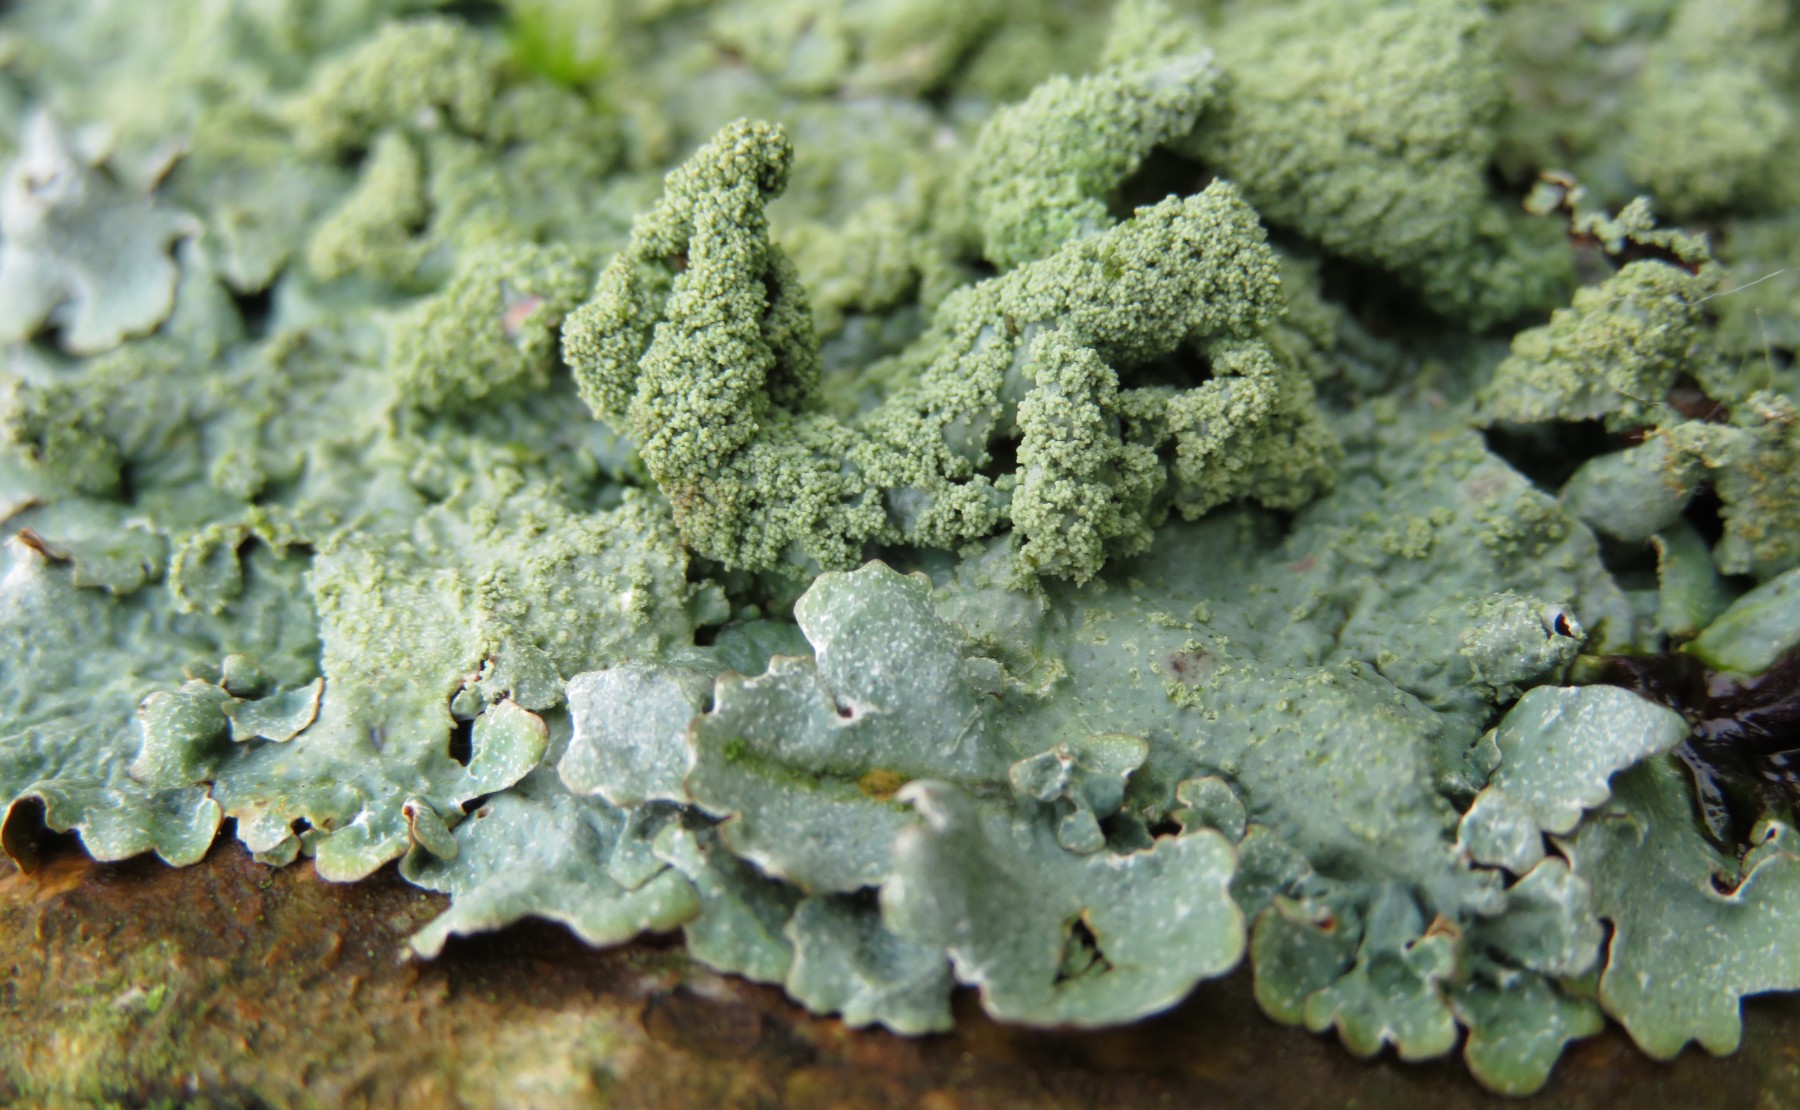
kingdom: Fungi
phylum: Ascomycota
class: Lecanoromycetes
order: Lecanorales
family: Parmeliaceae
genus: Parmelia
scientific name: Parmelia submontana
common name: langlobet skållav
